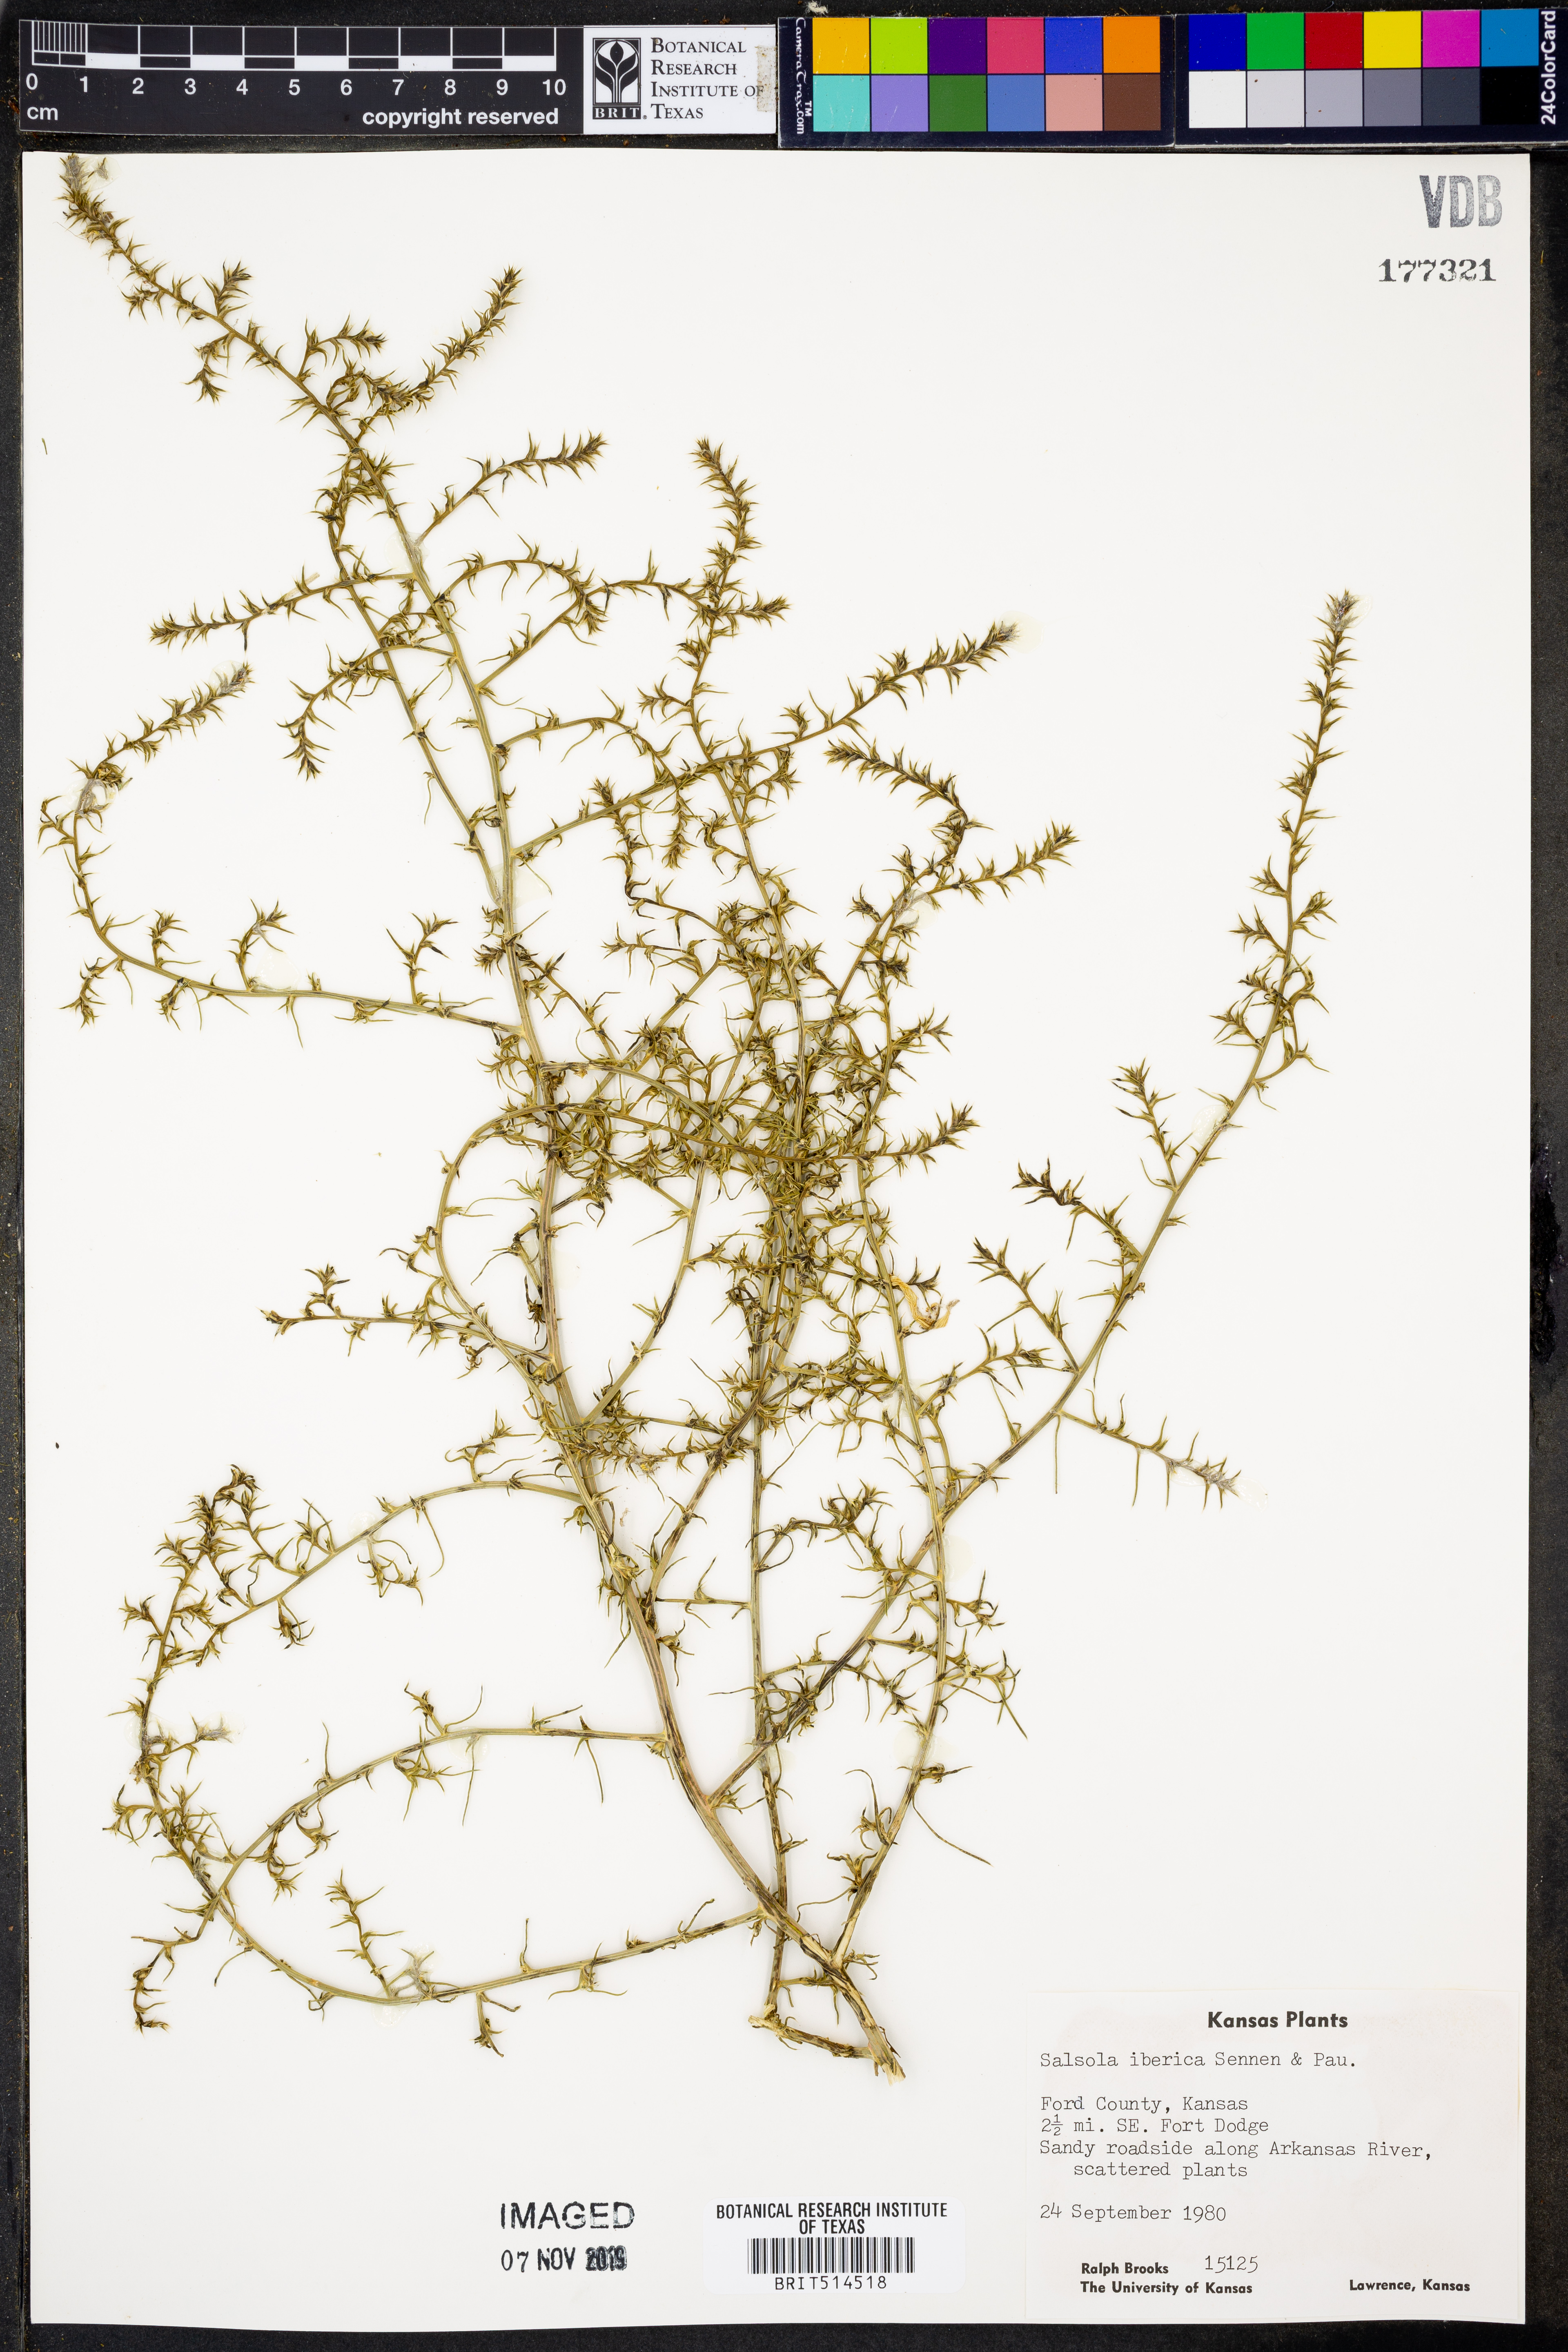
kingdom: Plantae
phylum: Tracheophyta
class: Magnoliopsida
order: Caryophyllales
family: Amaranthaceae
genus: Salsola
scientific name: Salsola tragus
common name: Prickly russian thistle
